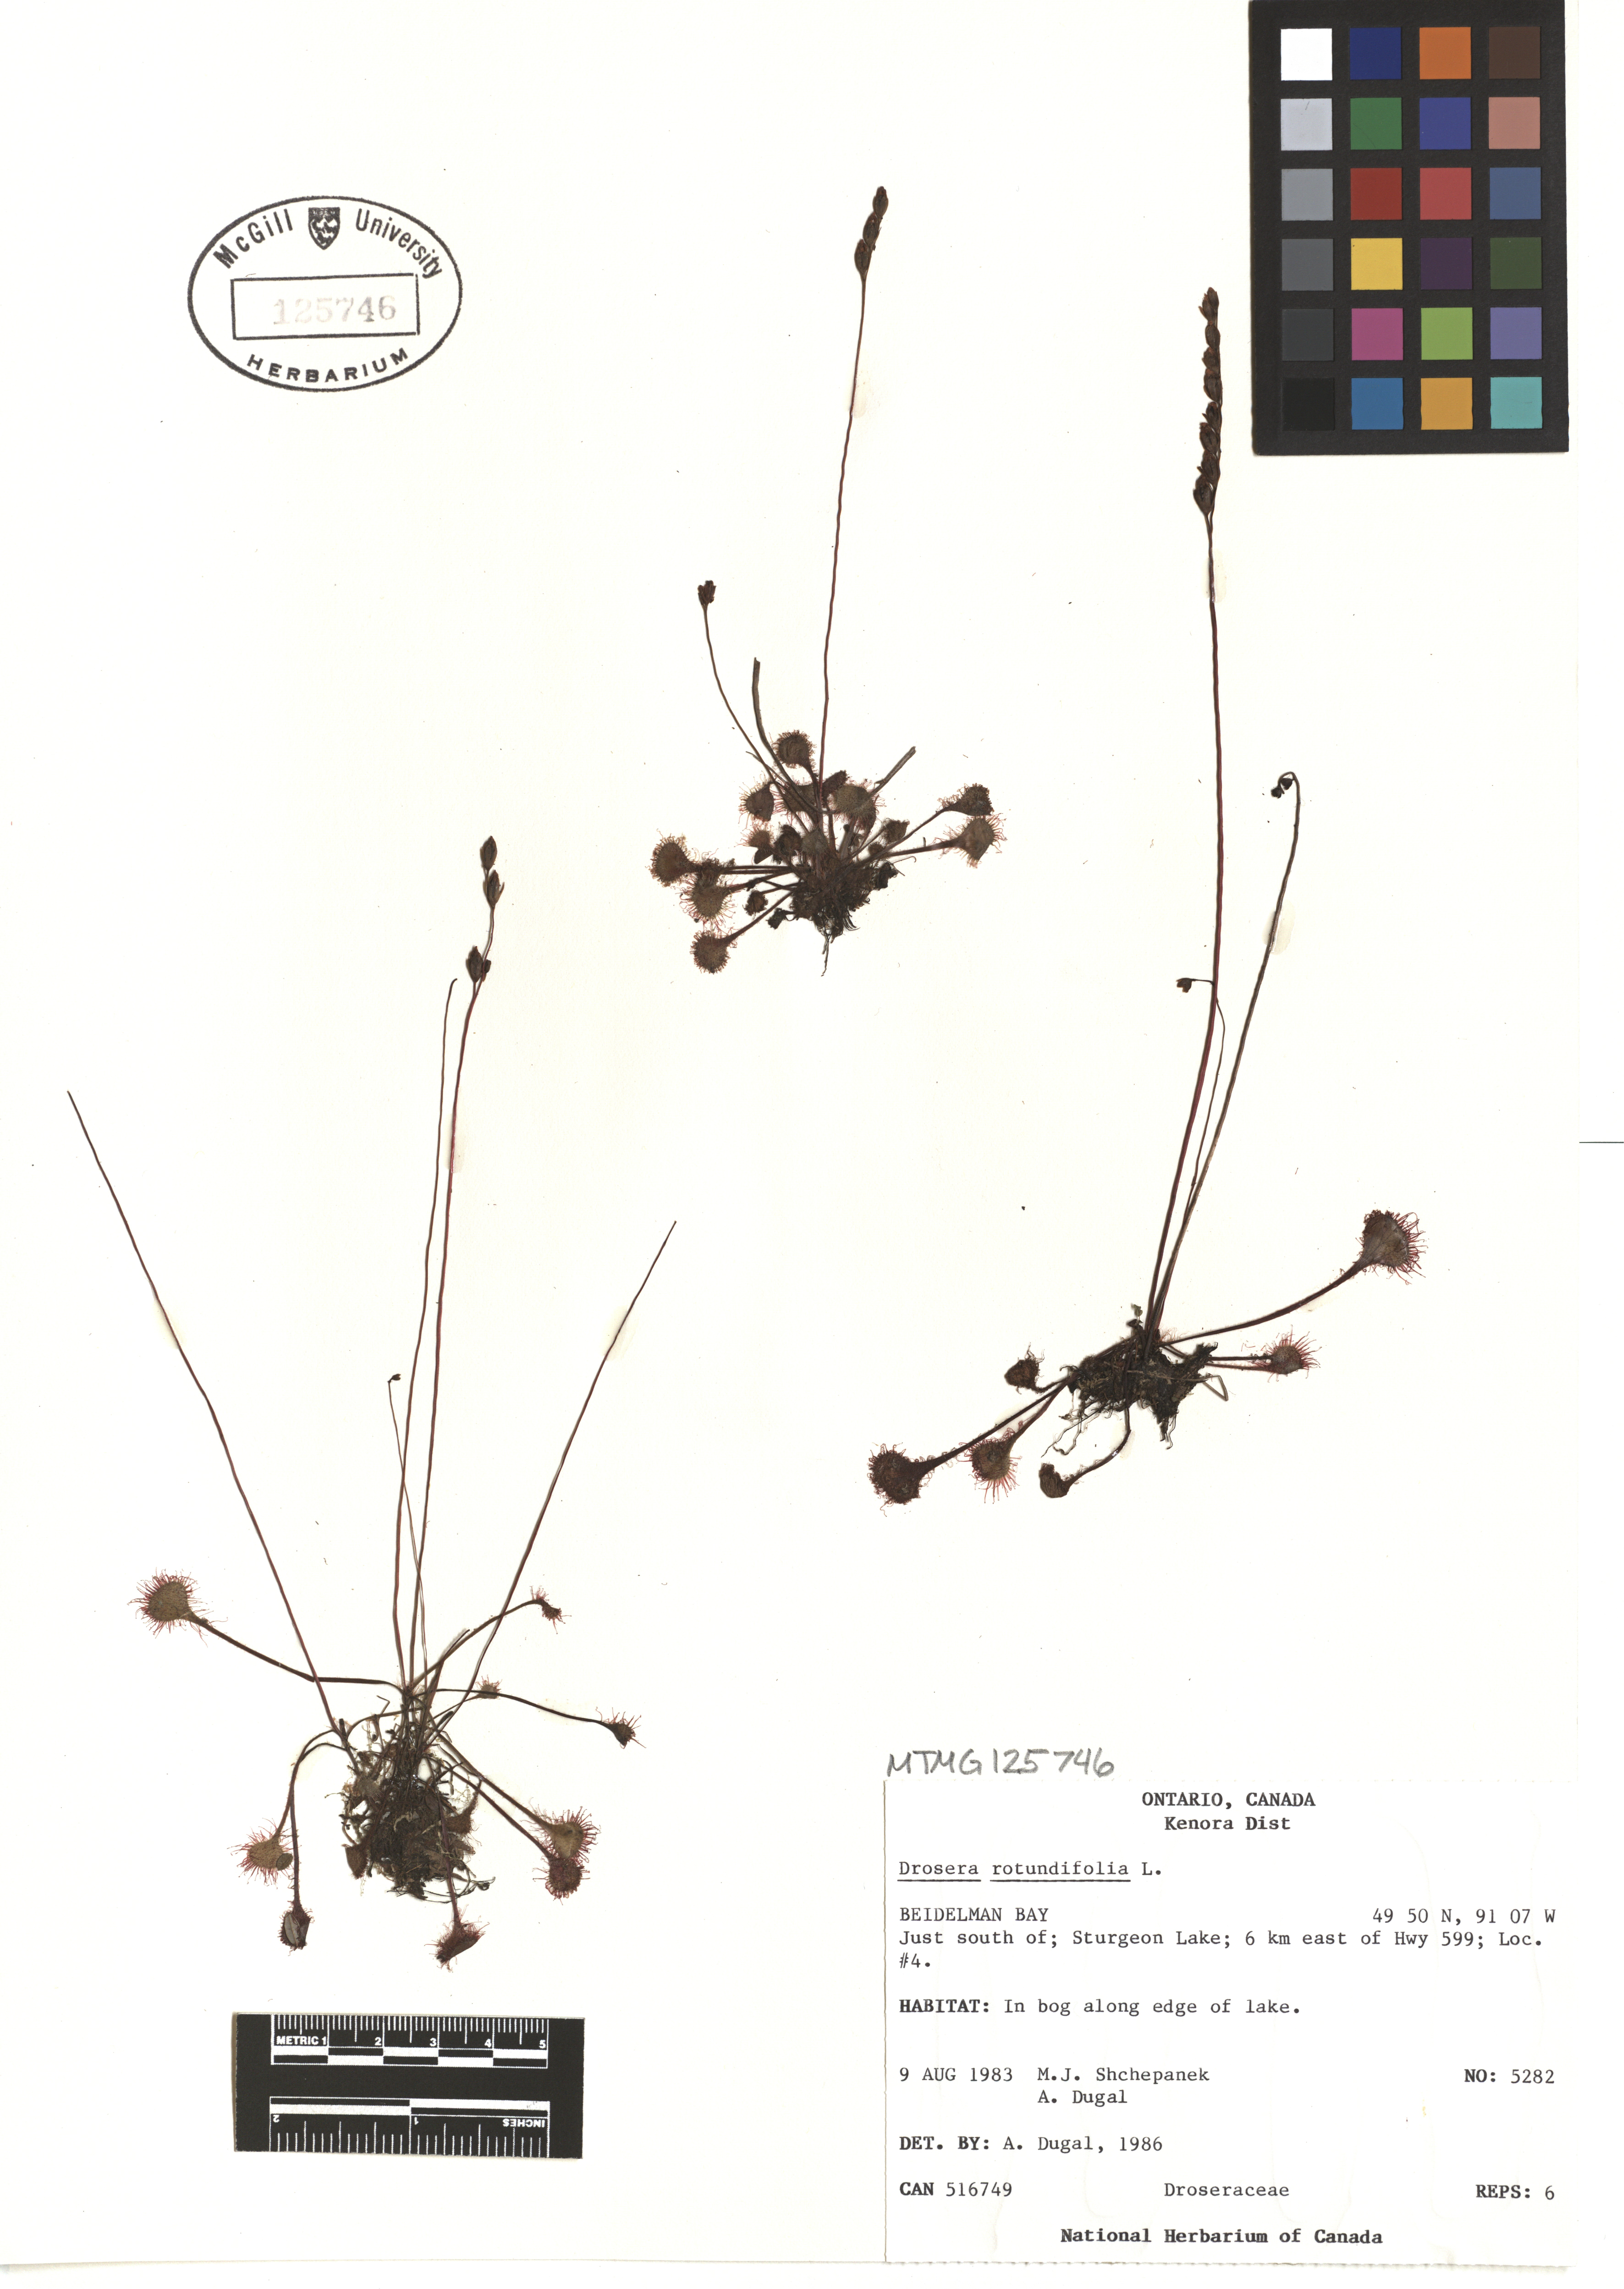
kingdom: Plantae
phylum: Tracheophyta
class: Magnoliopsida
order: Caryophyllales
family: Droseraceae
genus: Drosera
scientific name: Drosera rotundifolia
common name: Round-leaved sundew
